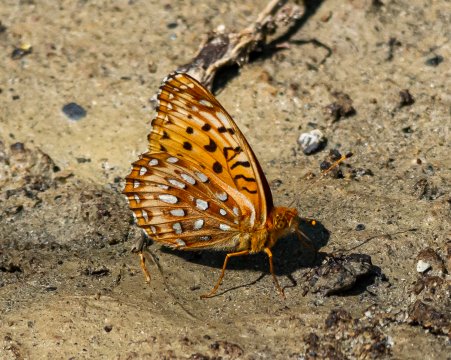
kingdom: Animalia
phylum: Arthropoda
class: Insecta
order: Lepidoptera
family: Nymphalidae
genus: Speyeria
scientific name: Speyeria aphrodite
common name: Aphrodite Fritillary
